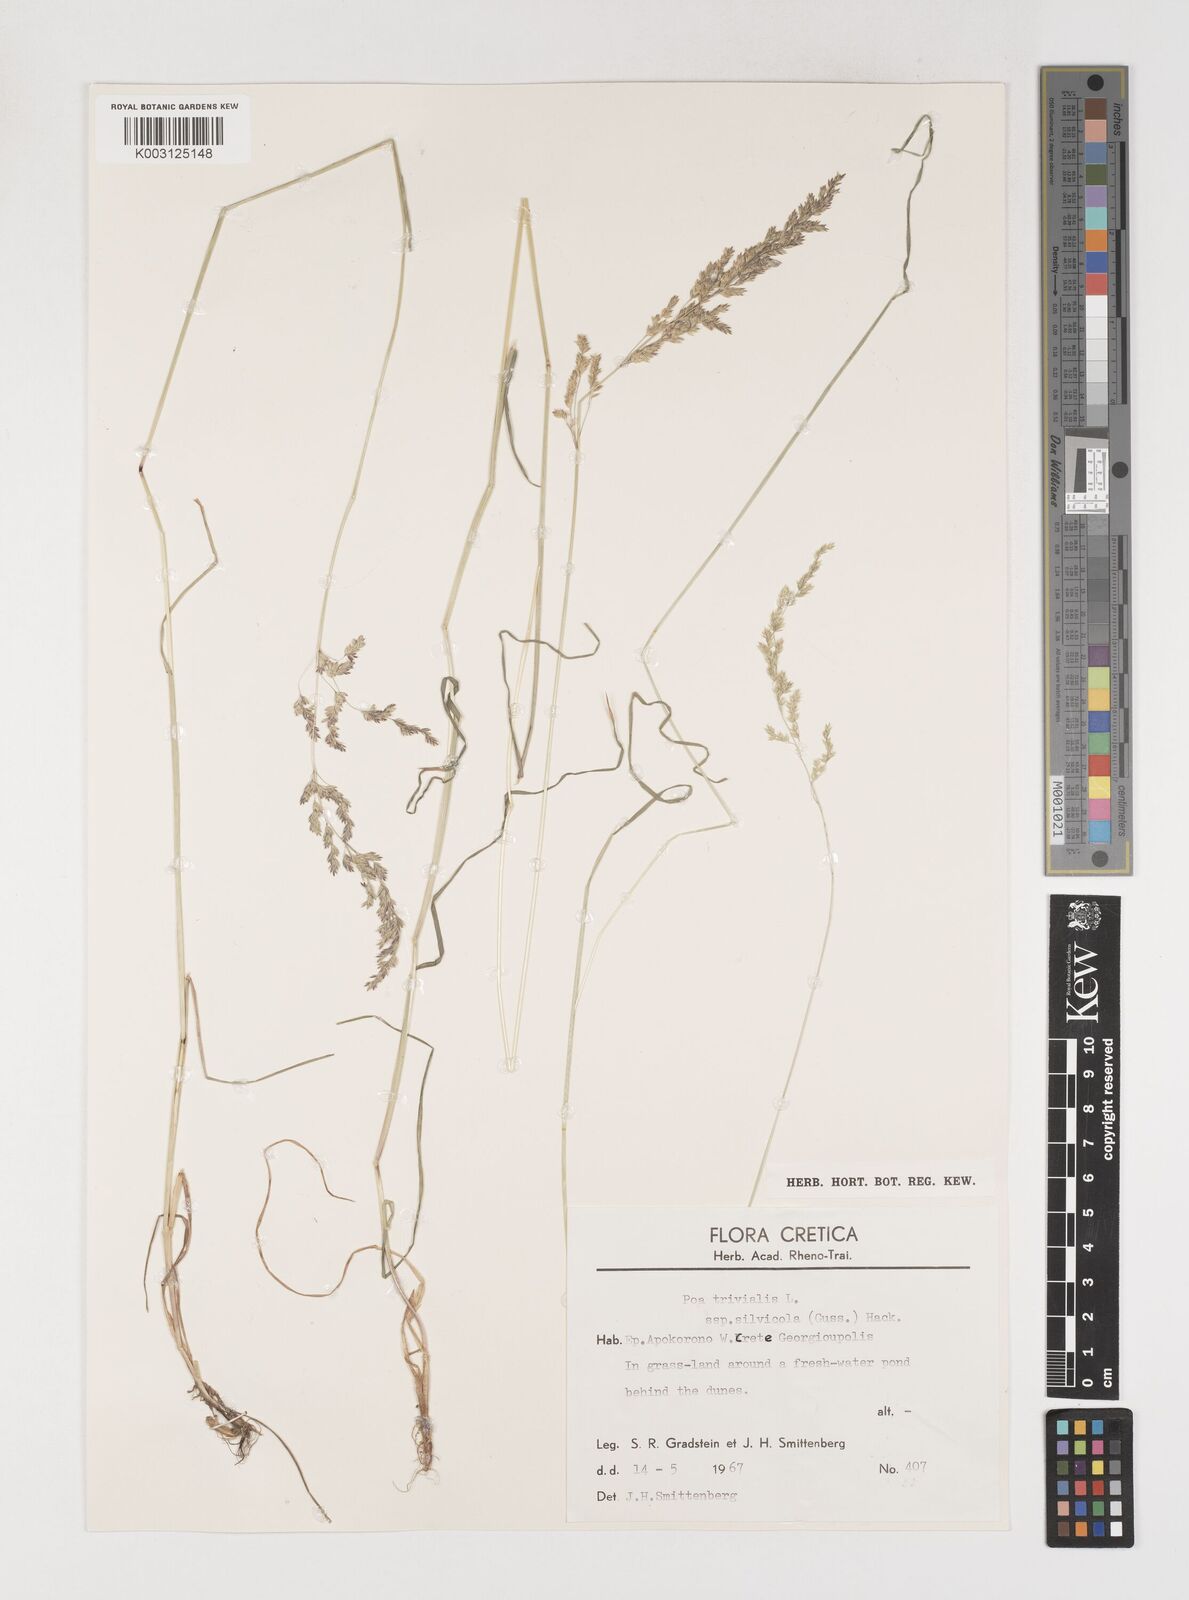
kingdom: Plantae
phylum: Tracheophyta
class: Liliopsida
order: Poales
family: Poaceae
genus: Poa
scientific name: Poa trivialis
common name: Rough bluegrass
